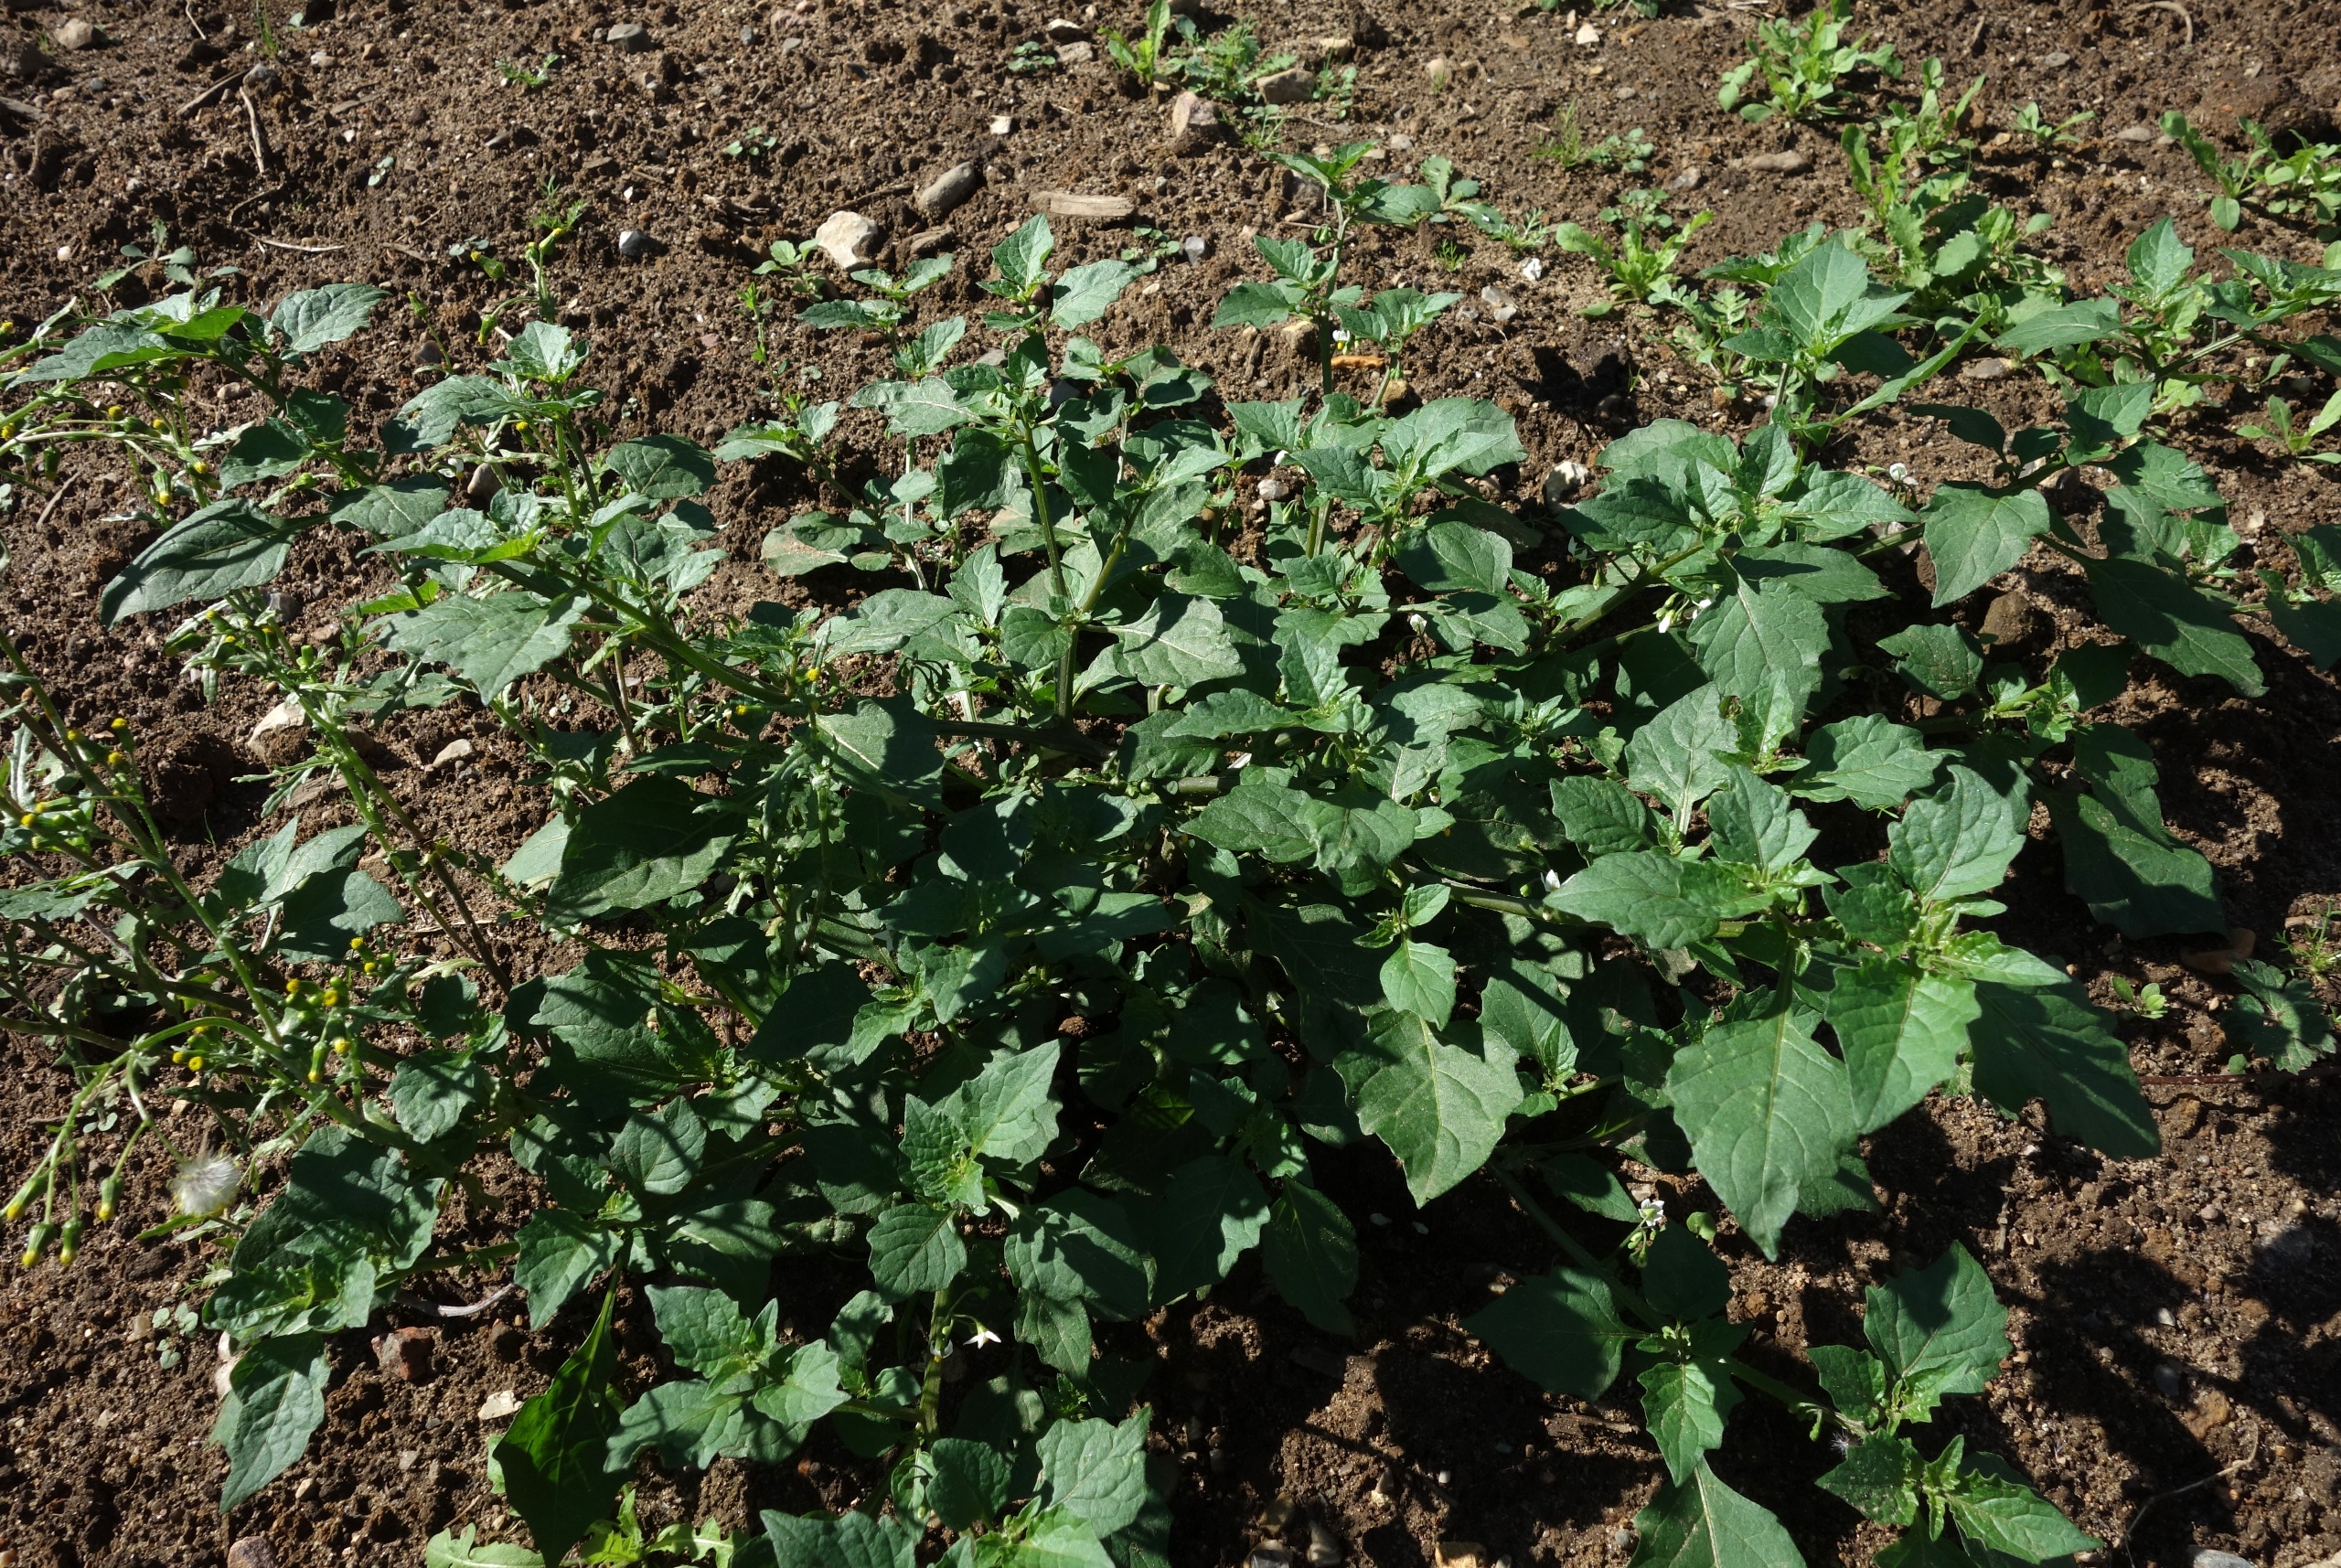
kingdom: Plantae
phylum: Tracheophyta
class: Magnoliopsida
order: Solanales
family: Solanaceae
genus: Solanum
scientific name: Solanum nigrum
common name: Sort natskygge
